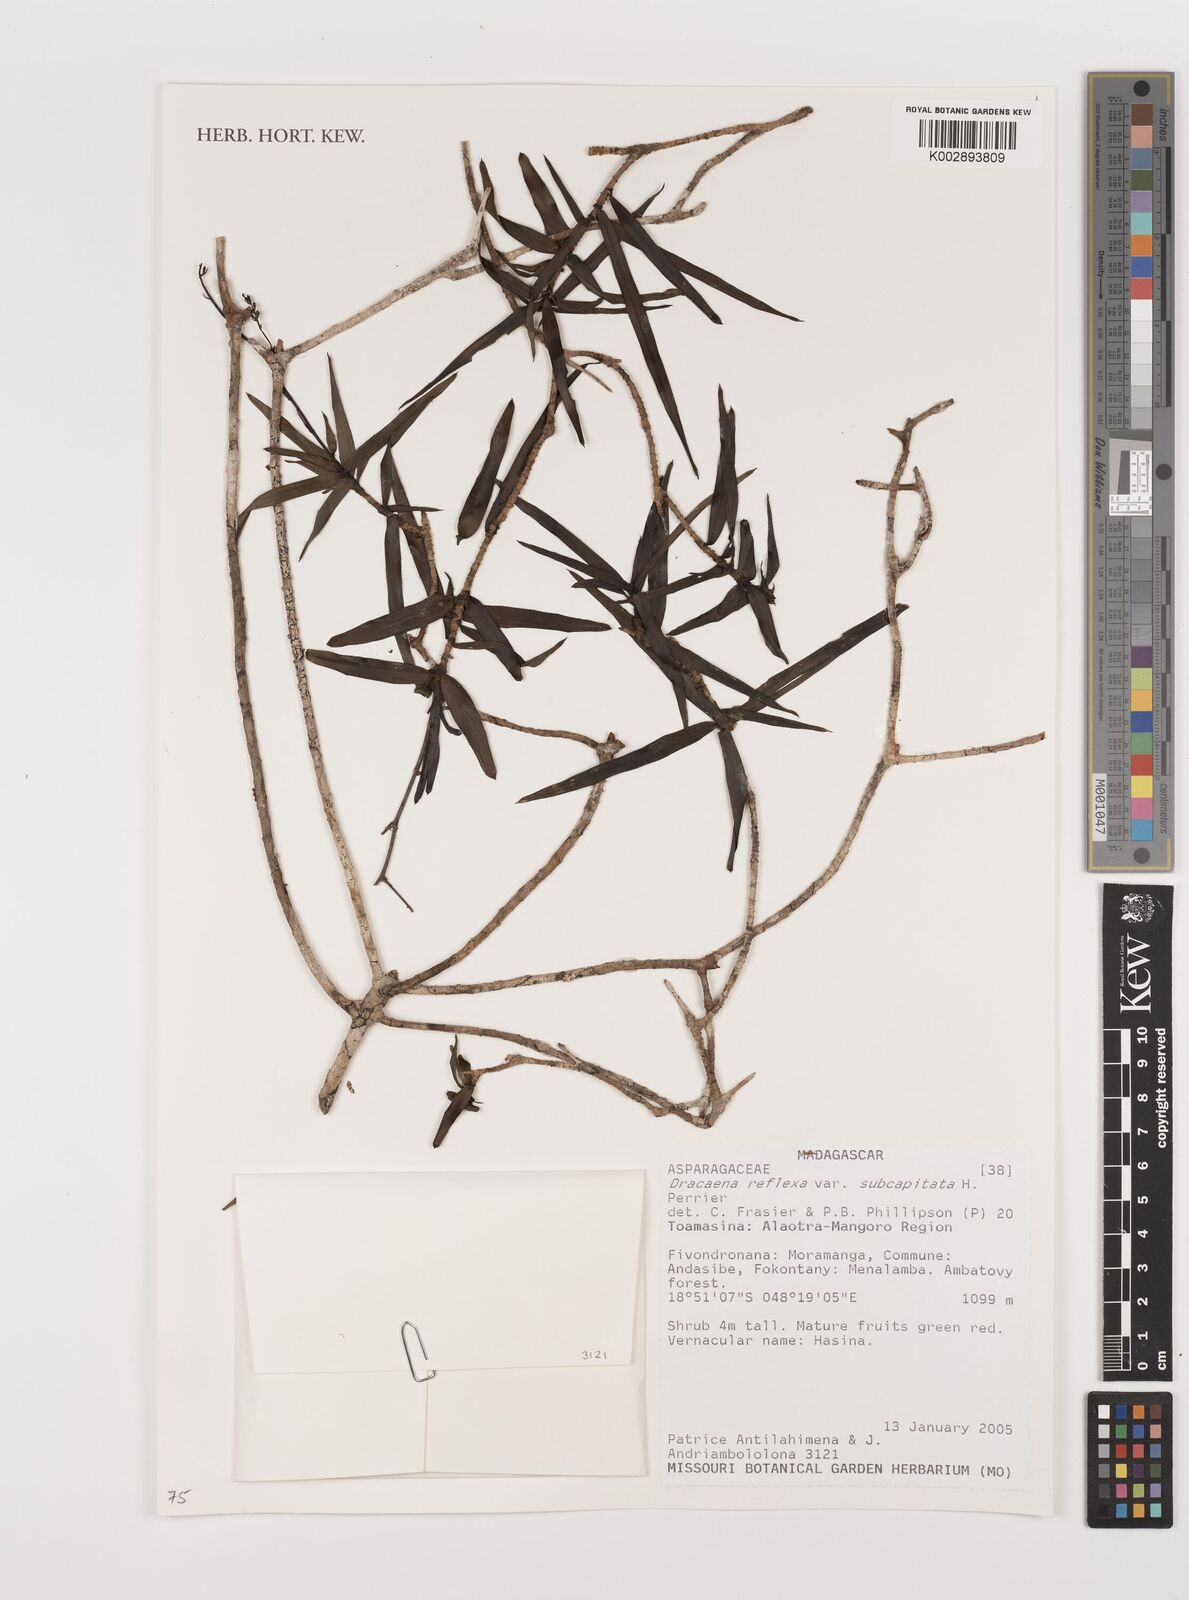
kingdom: Plantae
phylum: Tracheophyta
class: Liliopsida
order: Asparagales
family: Asparagaceae
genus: Dracaena
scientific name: Dracaena reflexa
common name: Song-of-india
